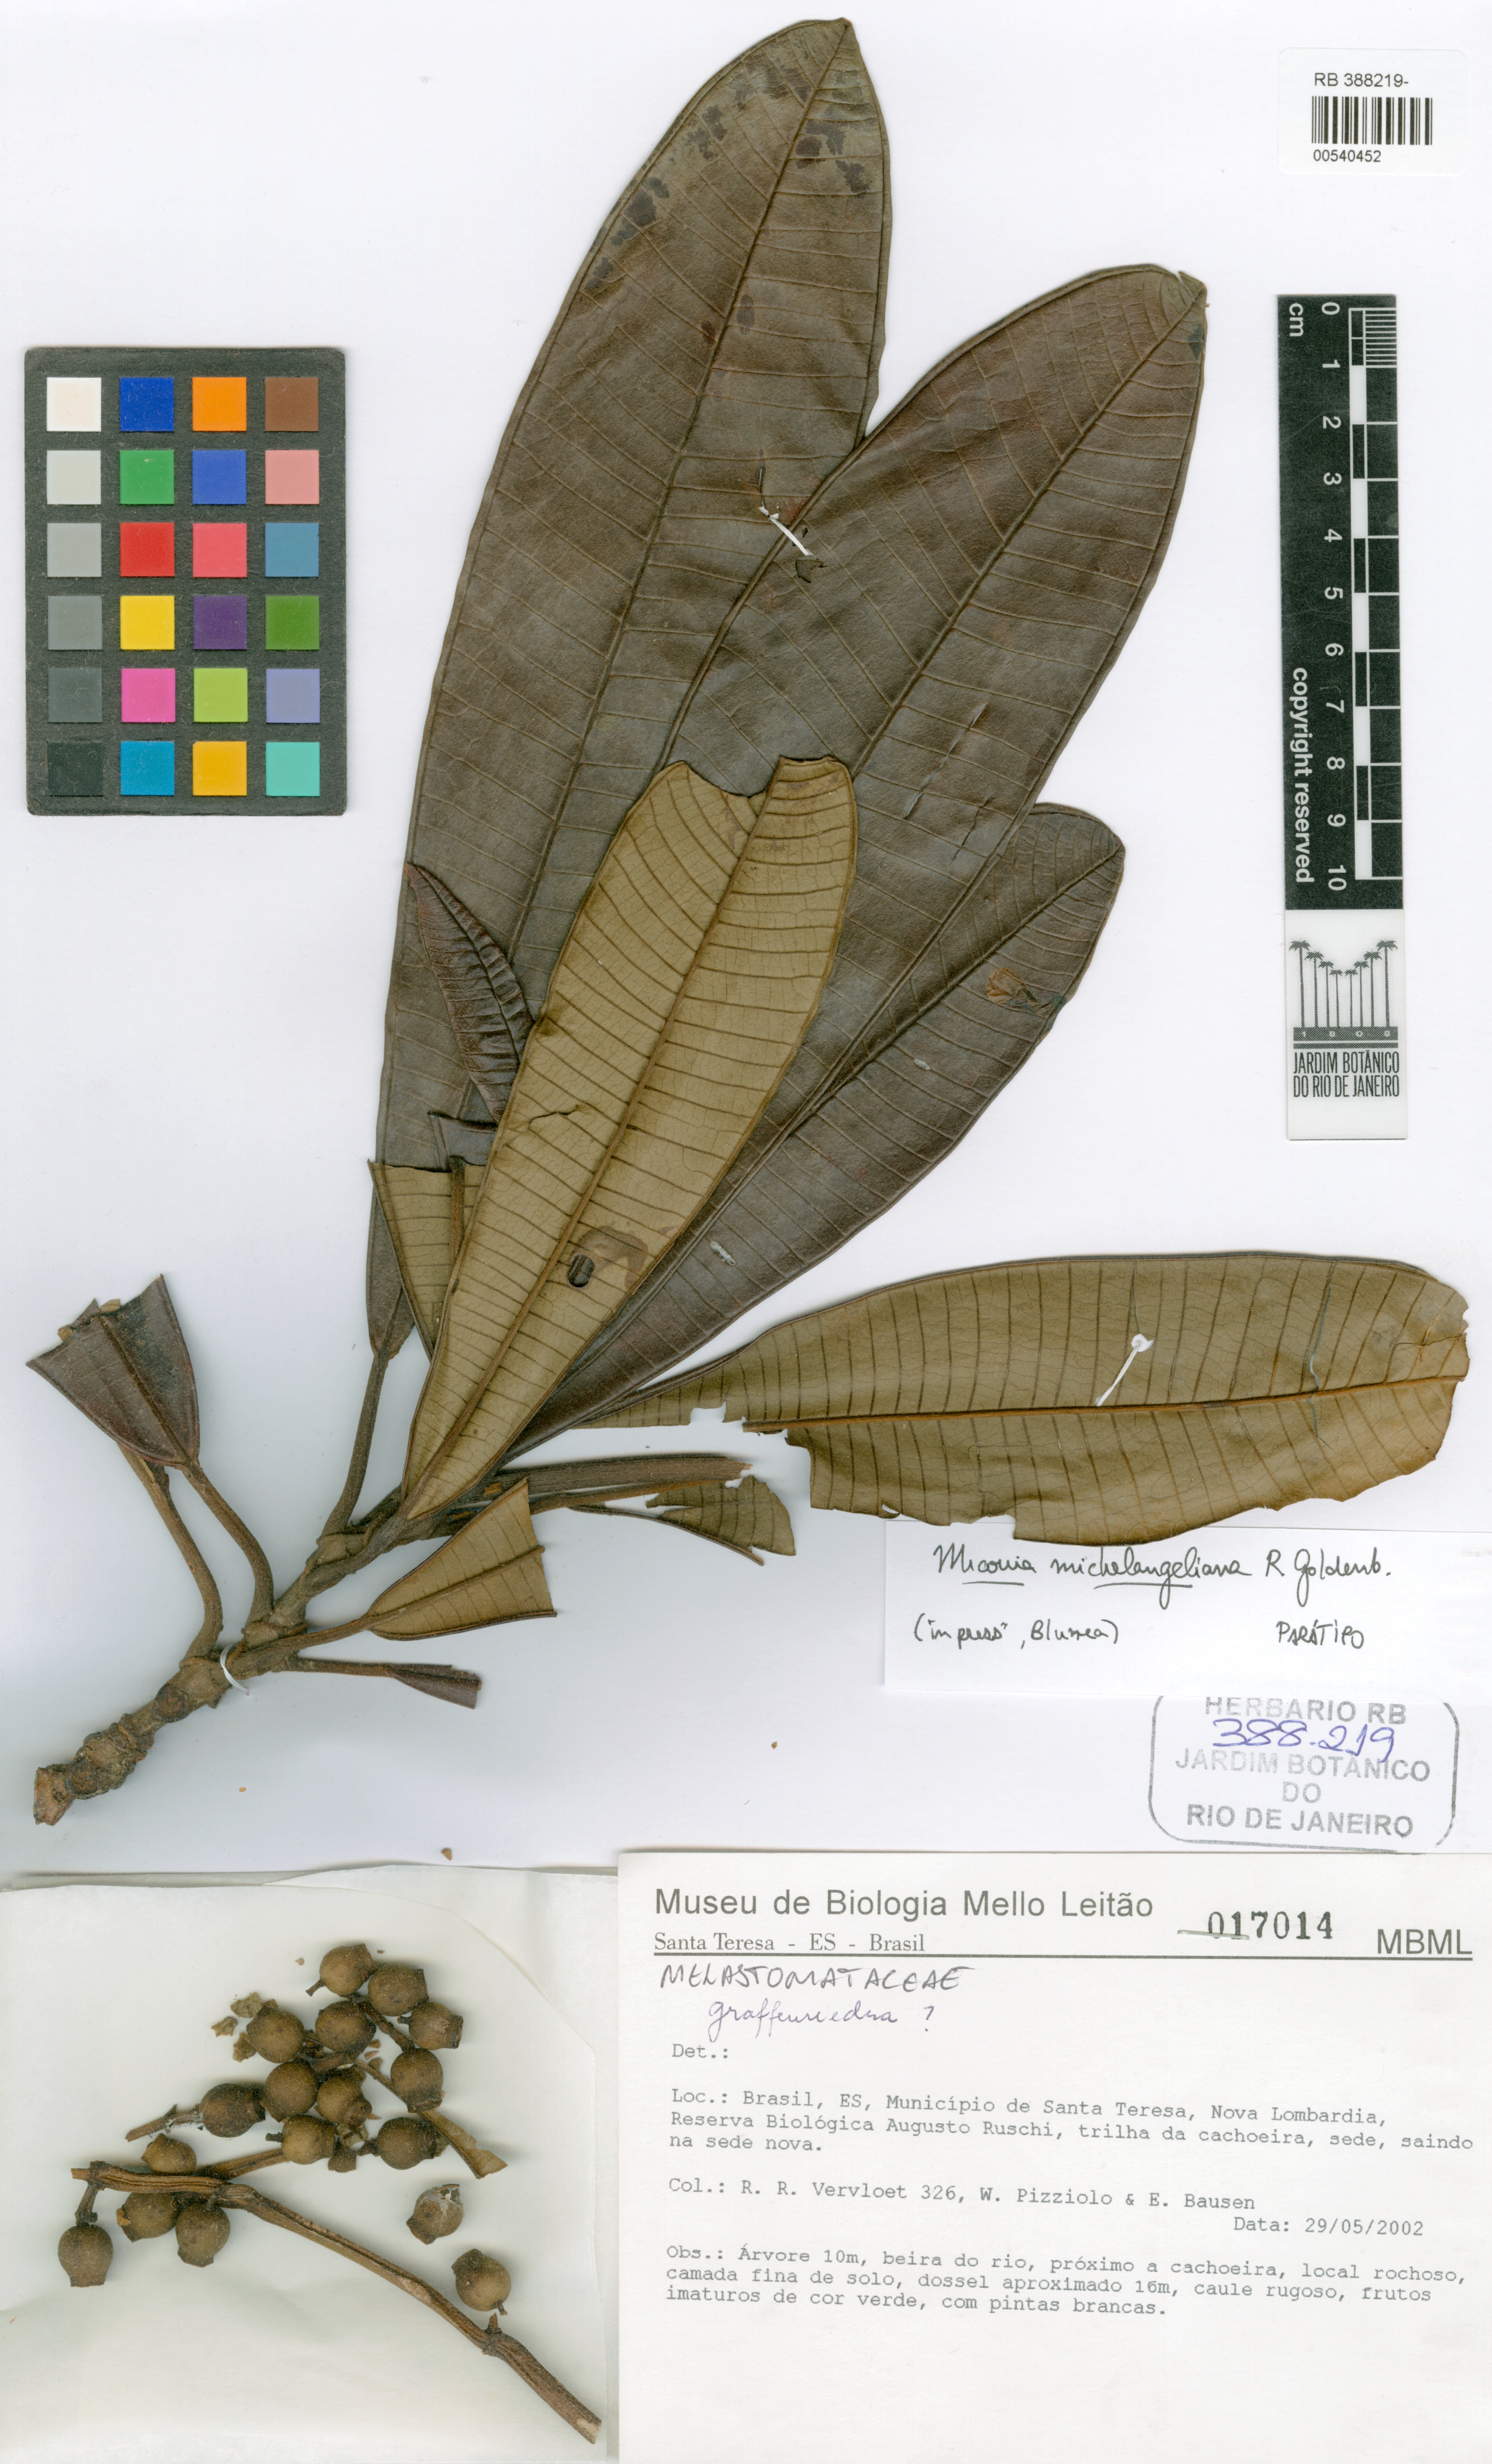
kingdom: Plantae
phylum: Tracheophyta
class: Magnoliopsida
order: Myrtales
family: Melastomataceae
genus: Miconia
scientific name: Miconia michelangeliana
